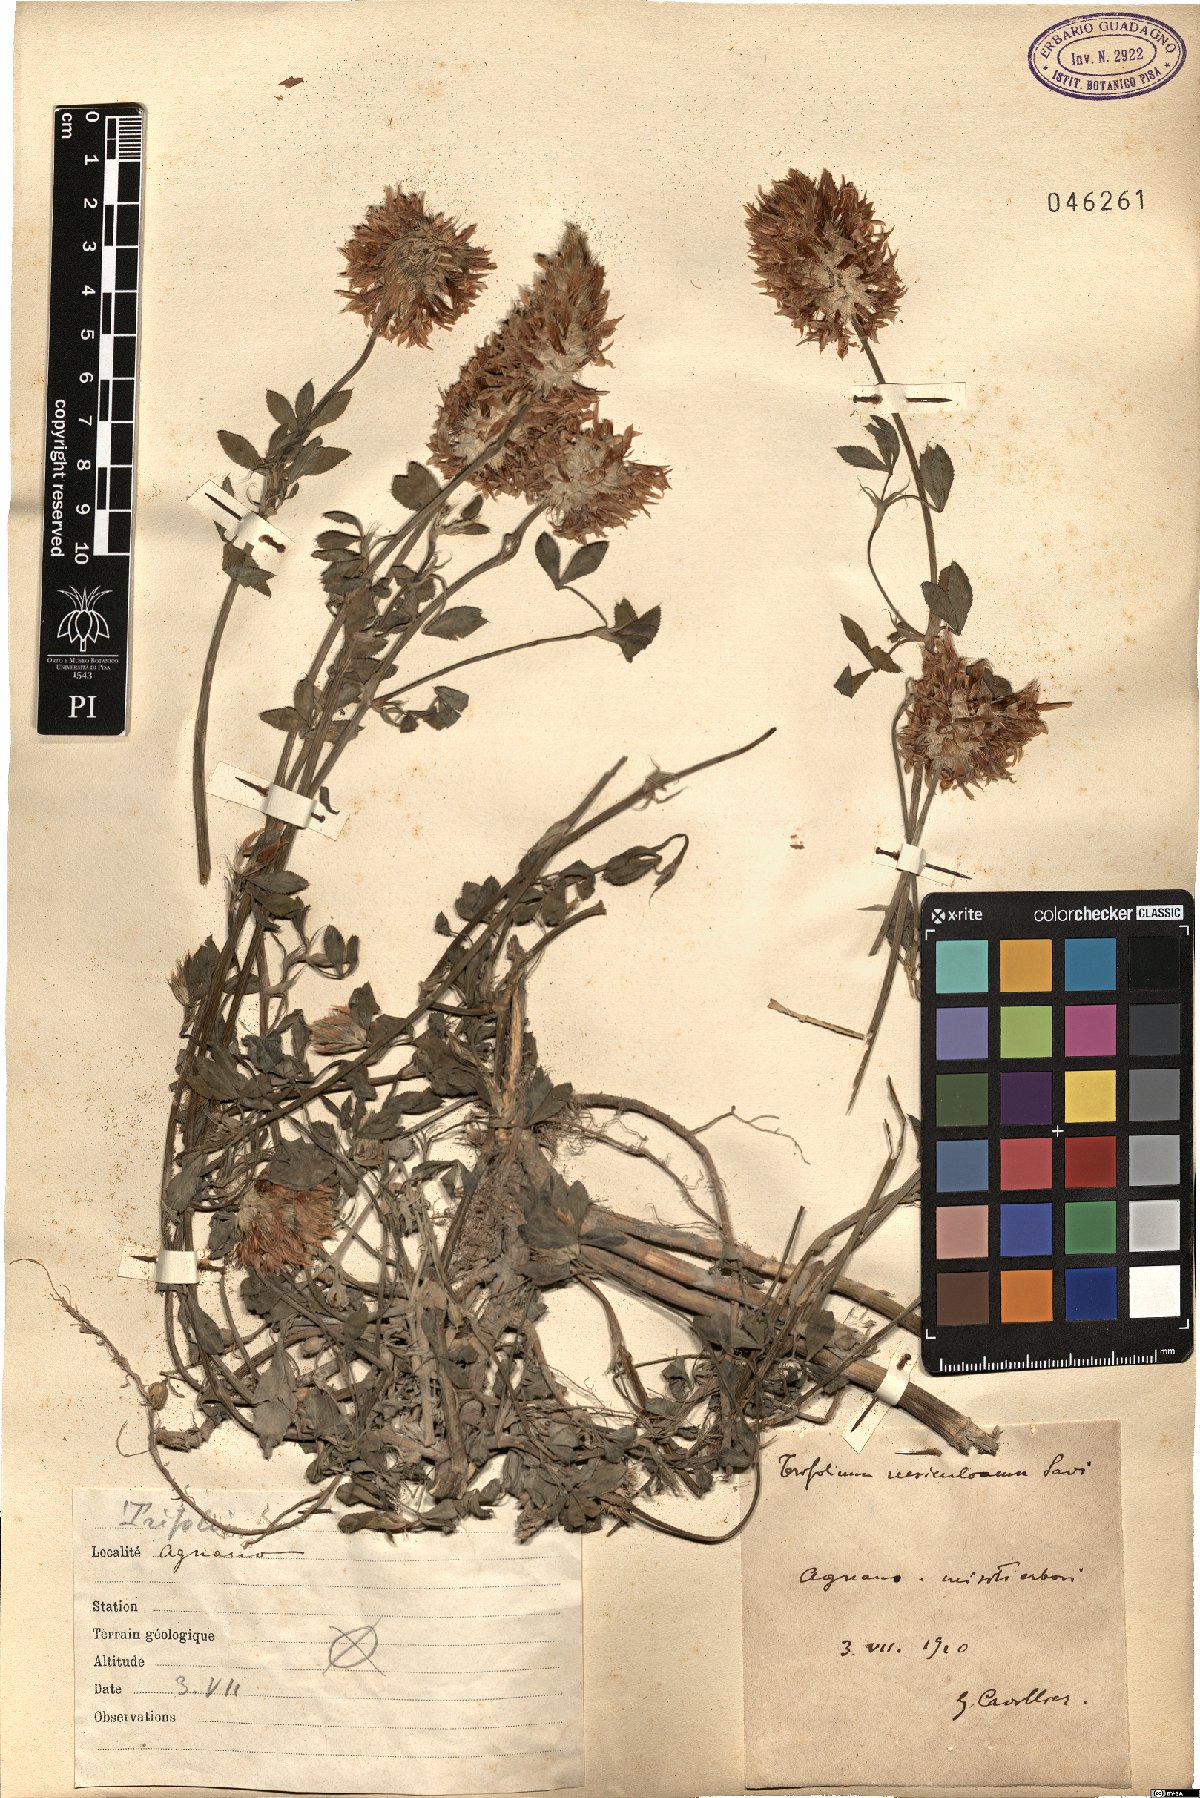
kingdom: Plantae
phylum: Tracheophyta
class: Magnoliopsida
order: Fabales
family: Fabaceae
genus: Trifolium
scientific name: Trifolium vesiculosum
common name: Arrowleaf clover
